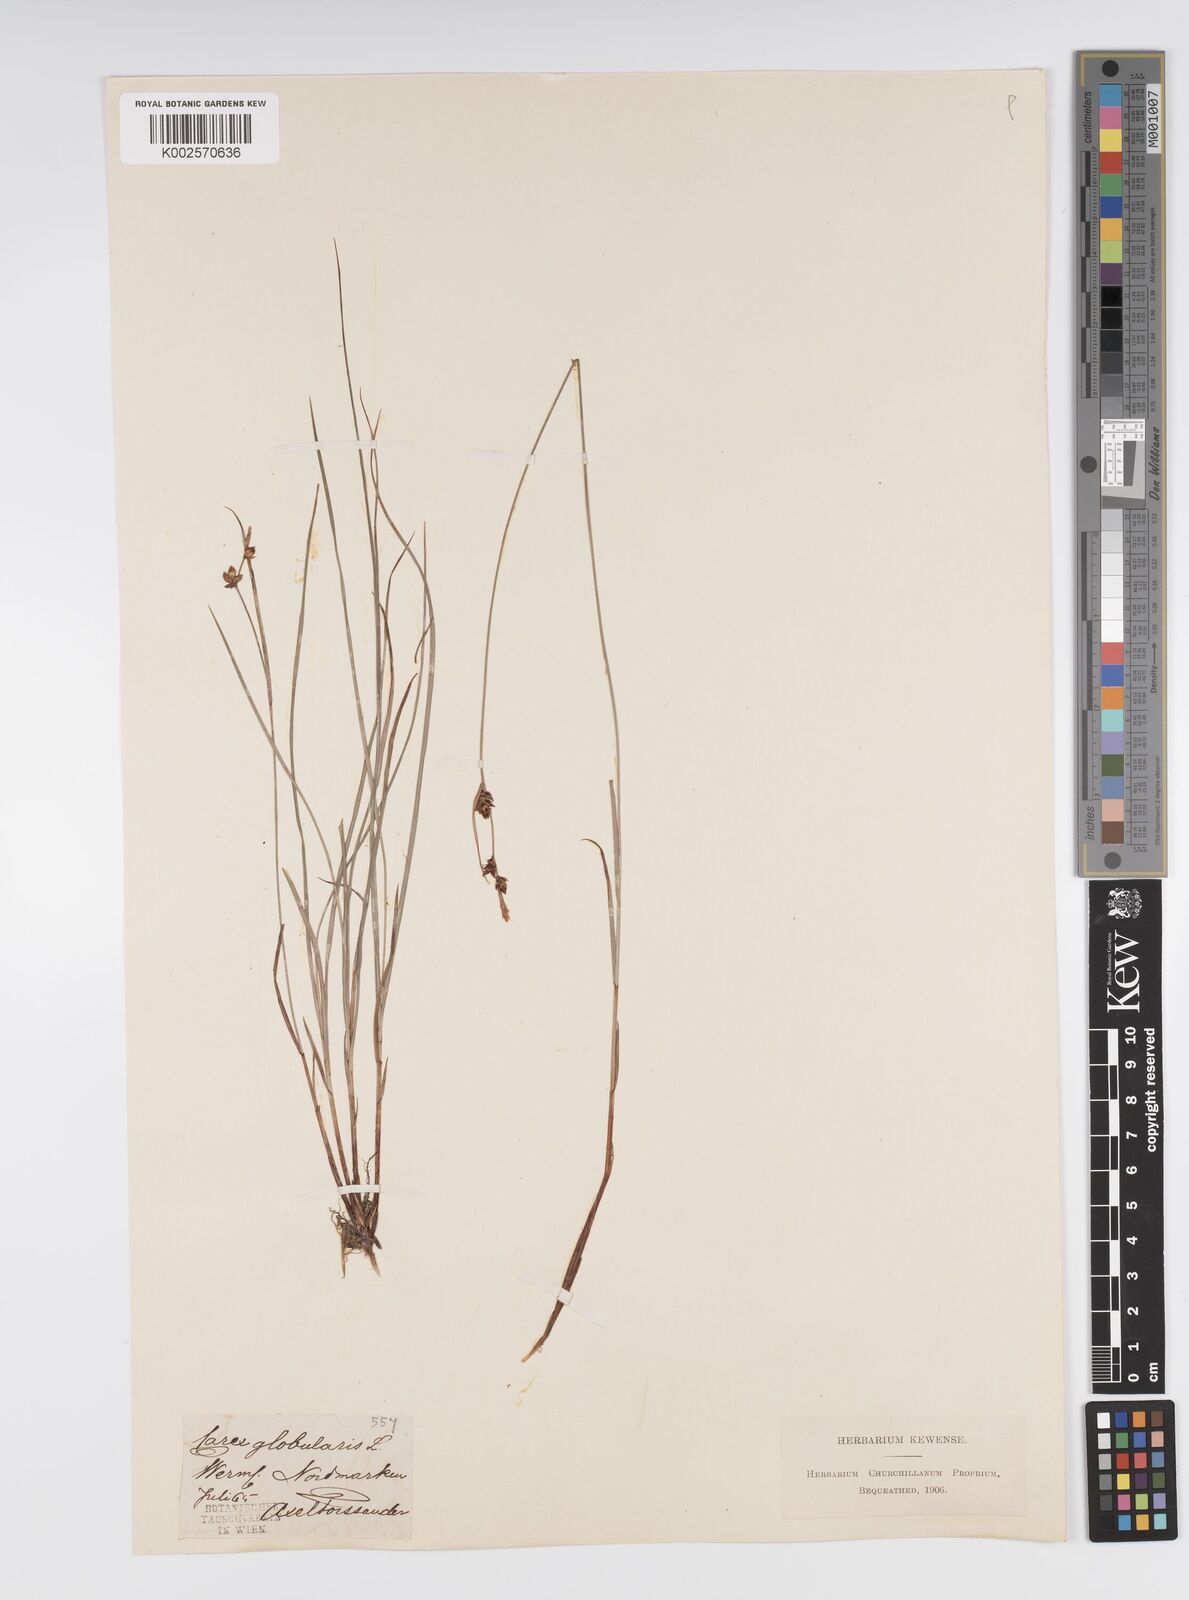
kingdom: Plantae
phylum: Tracheophyta
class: Liliopsida
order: Poales
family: Cyperaceae
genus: Carex
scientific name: Carex globularis
